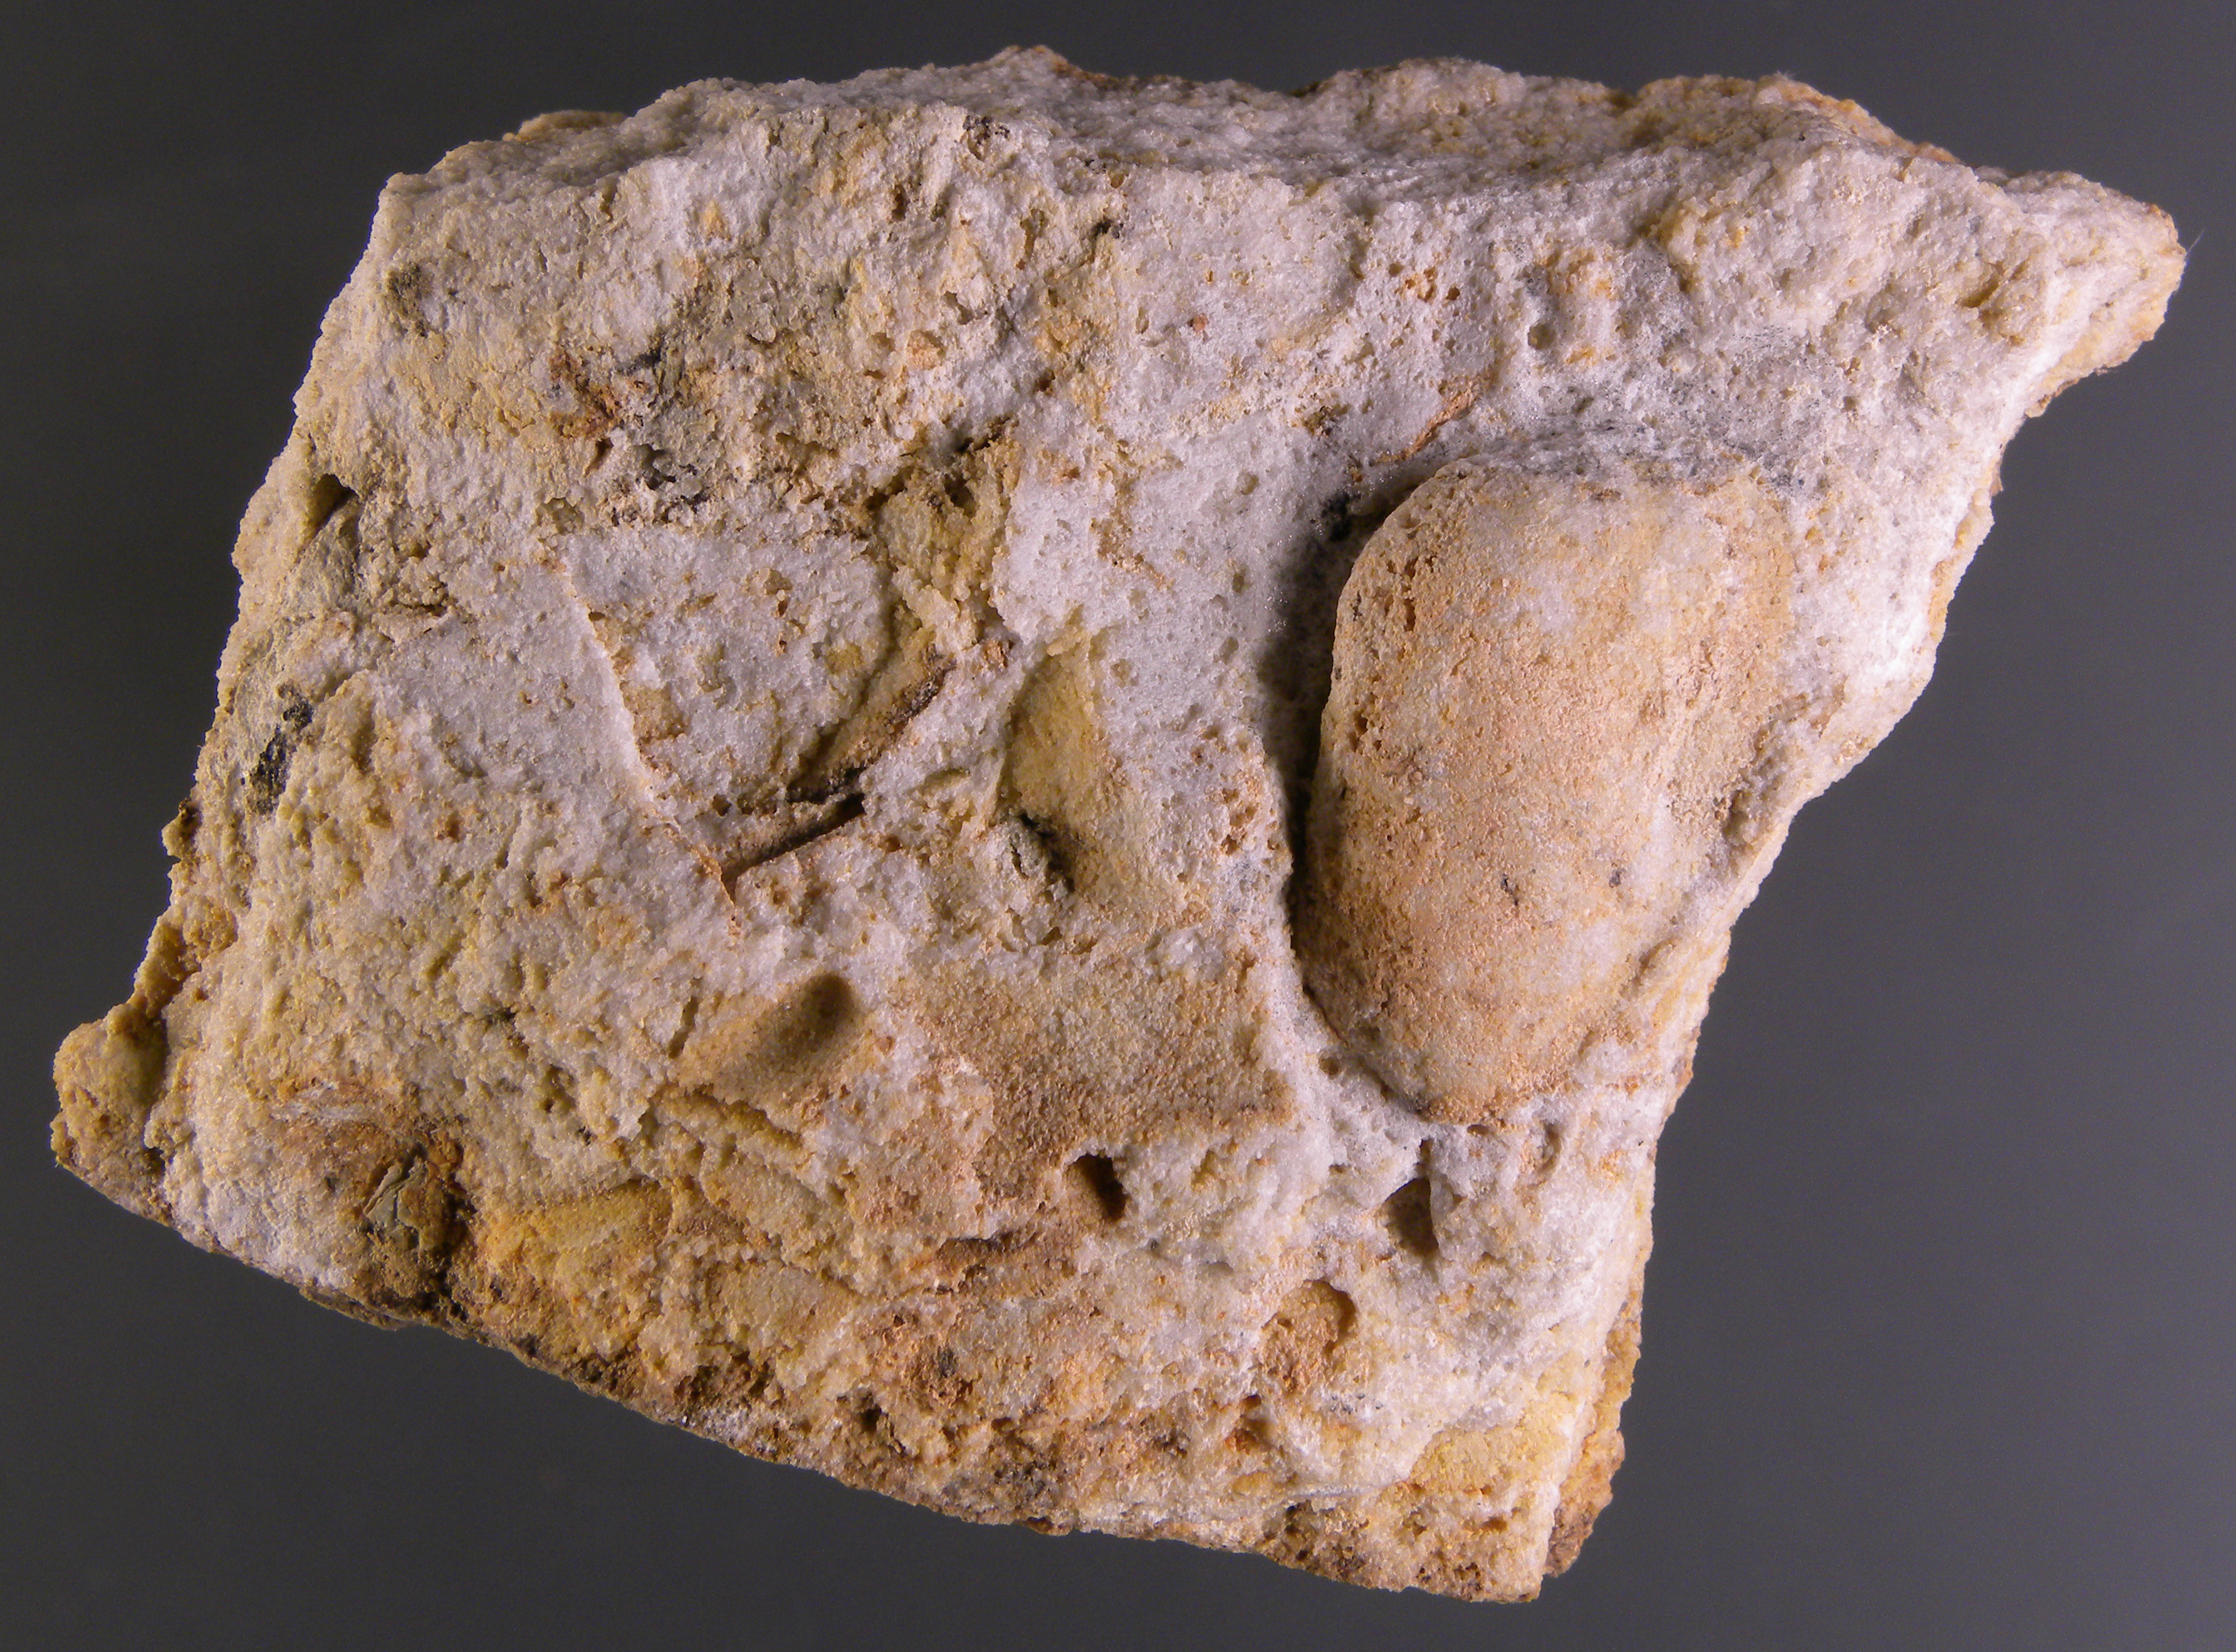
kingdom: Animalia
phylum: Mollusca
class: Bivalvia
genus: Rhenanomya
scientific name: Rhenanomya
